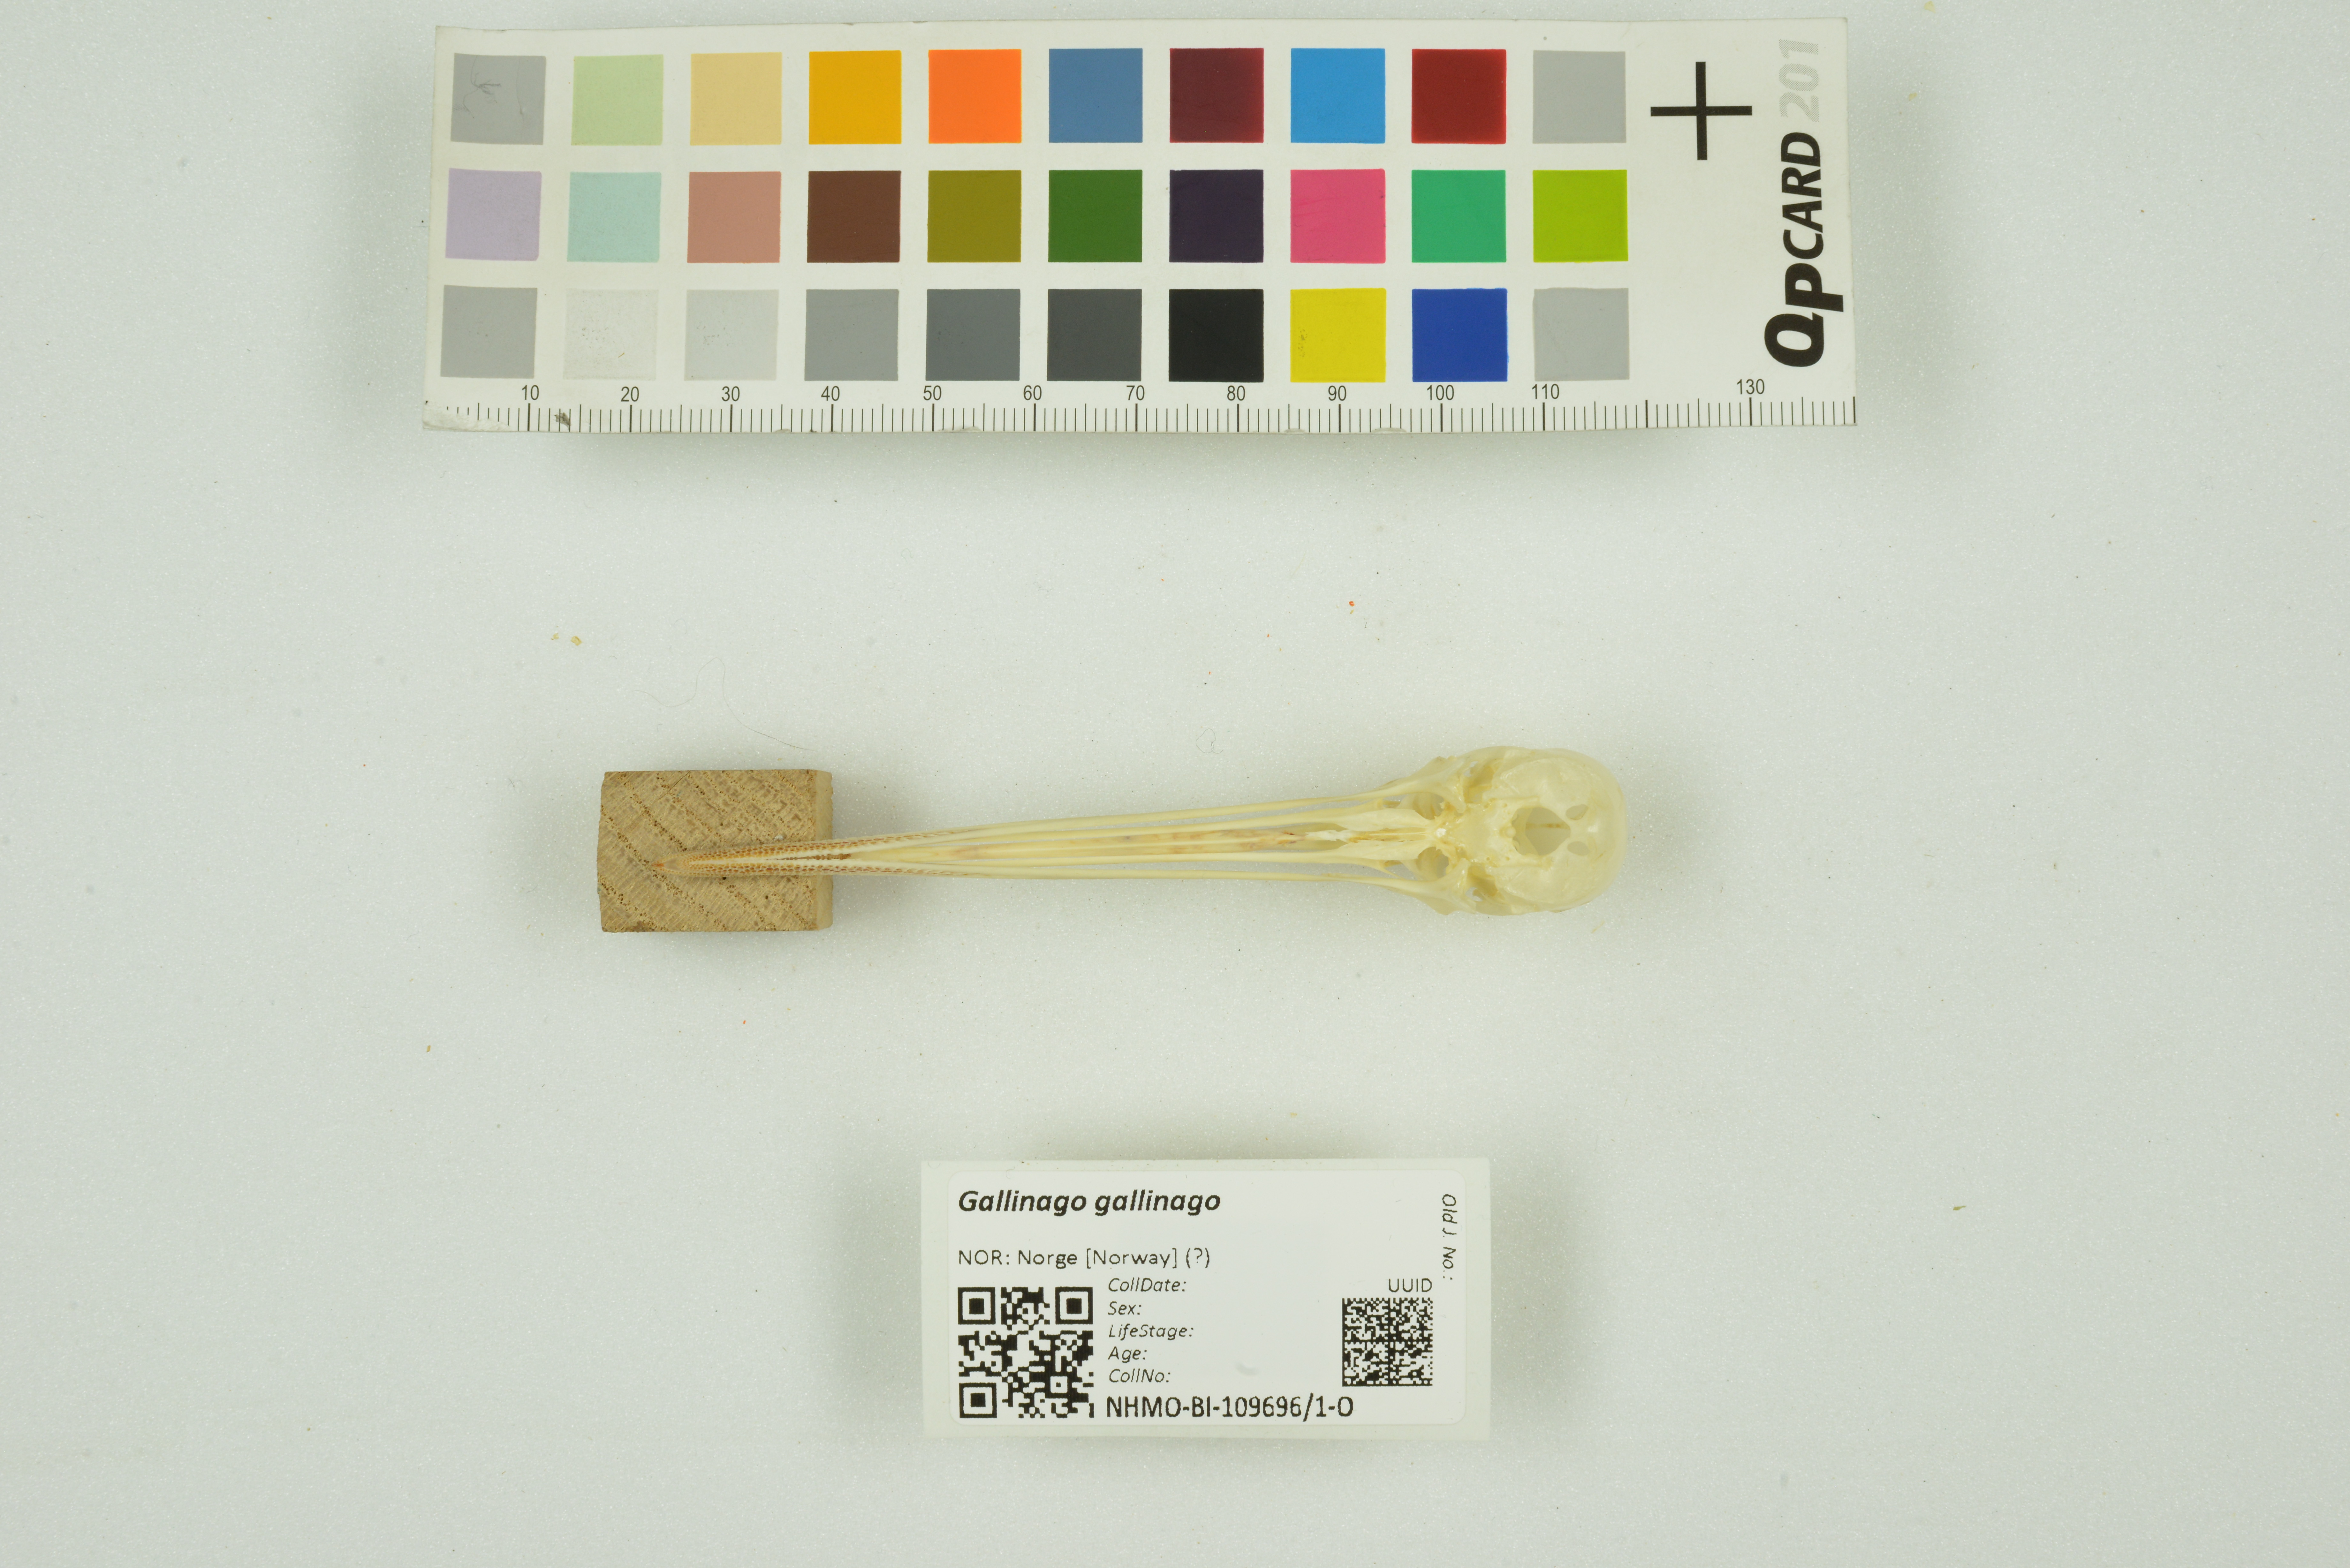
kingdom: Animalia
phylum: Chordata
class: Aves
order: Charadriiformes
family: Scolopacidae
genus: Gallinago
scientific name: Gallinago gallinago
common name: Common snipe
